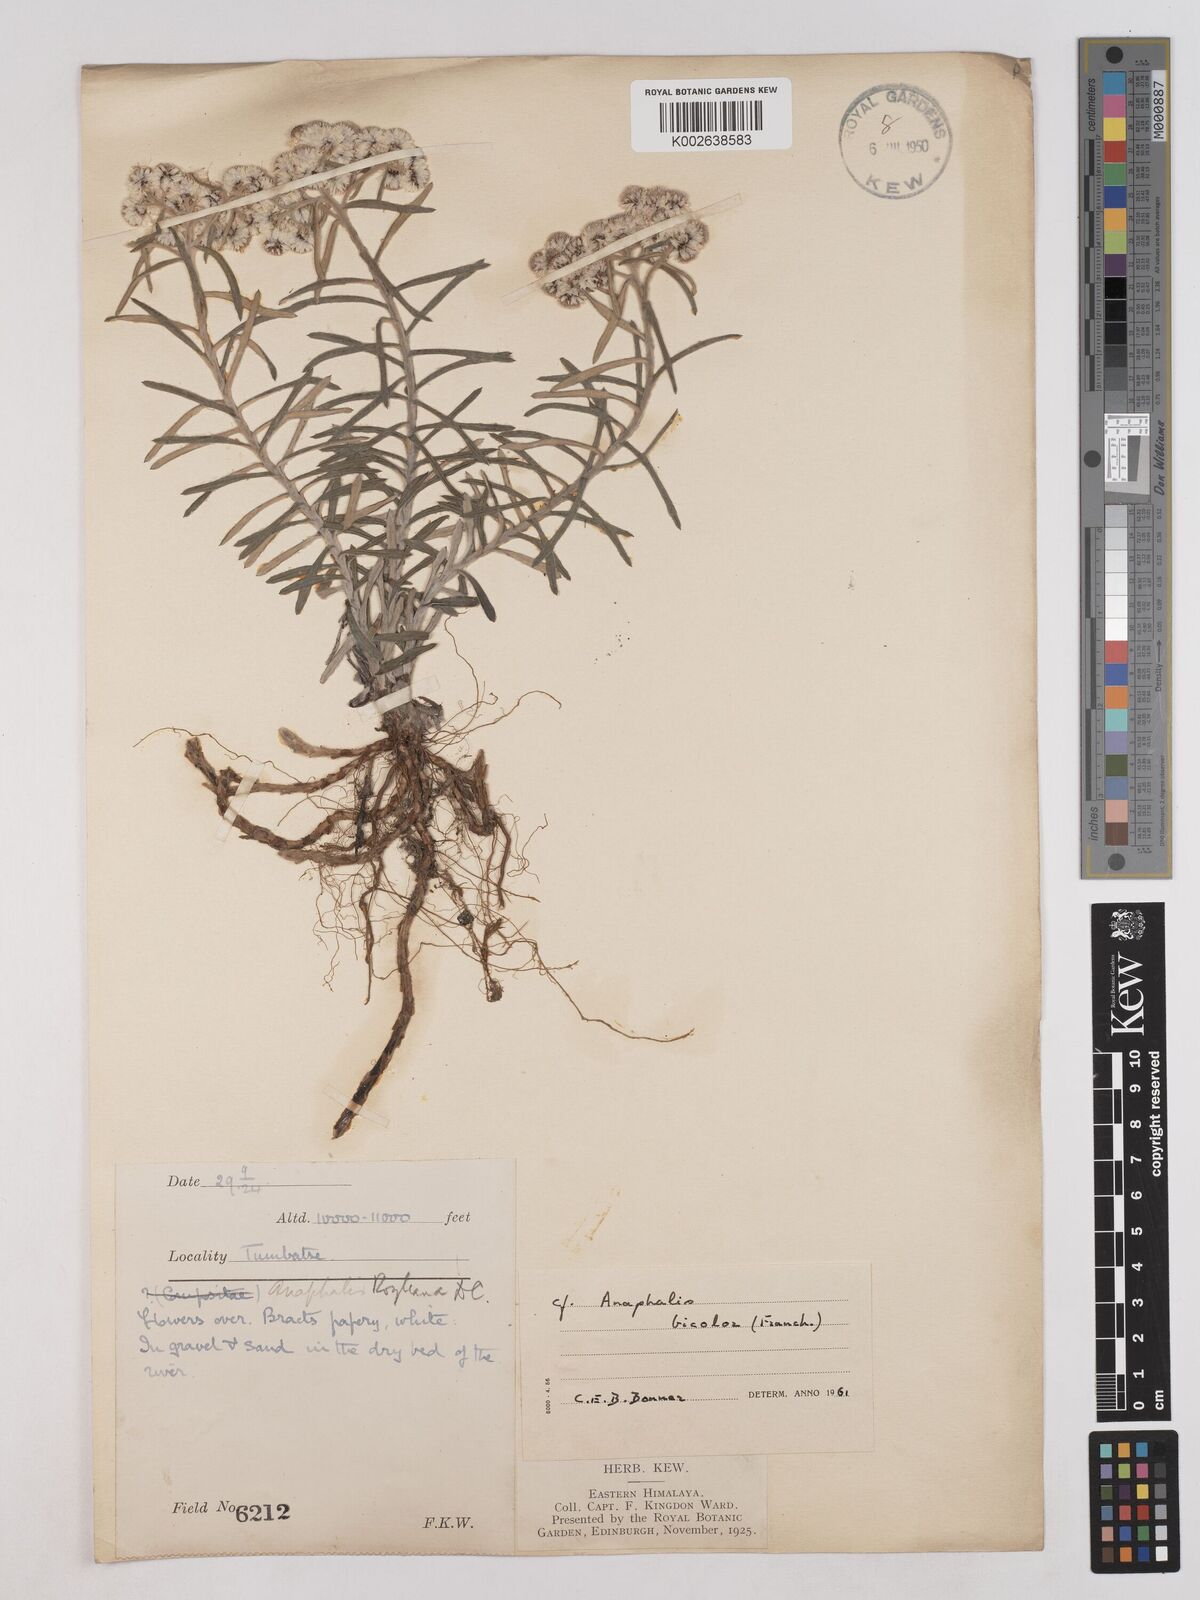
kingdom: Plantae
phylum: Tracheophyta
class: Magnoliopsida
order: Asterales
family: Asteraceae
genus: Anaphalis
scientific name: Anaphalis royleana
